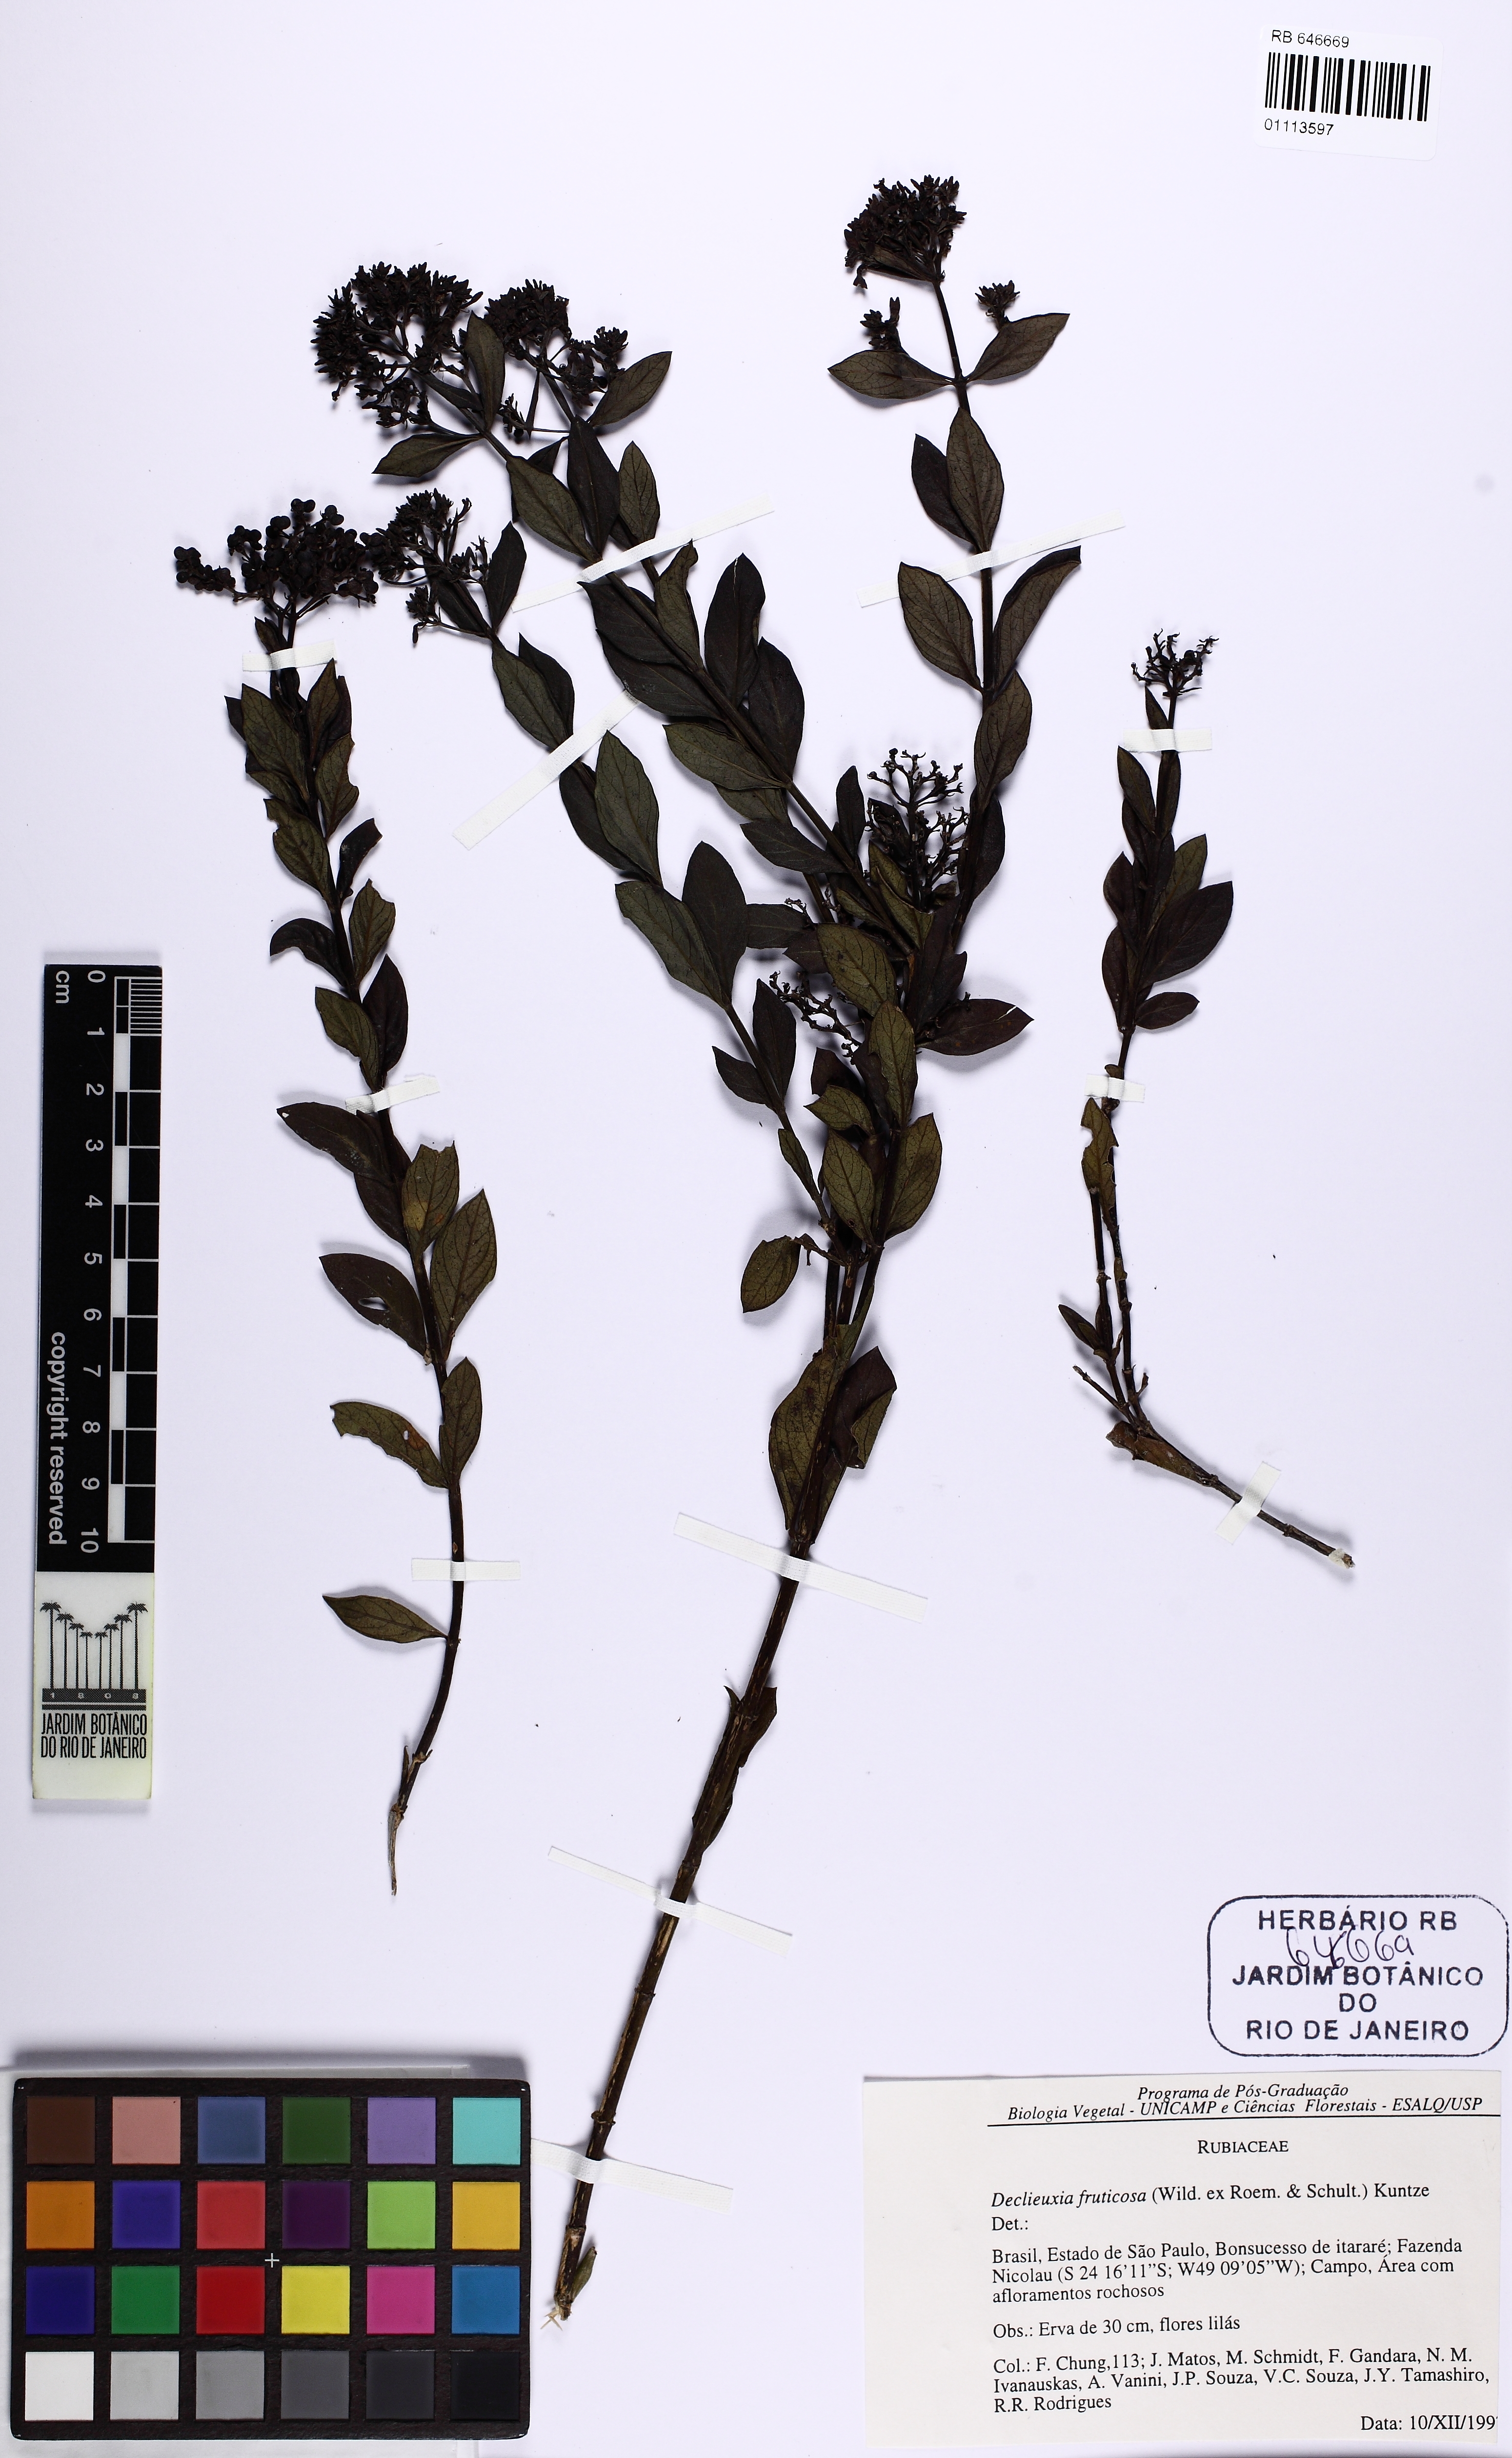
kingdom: Plantae
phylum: Tracheophyta
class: Magnoliopsida
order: Gentianales
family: Rubiaceae
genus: Declieuxia
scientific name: Declieuxia fruticosa
